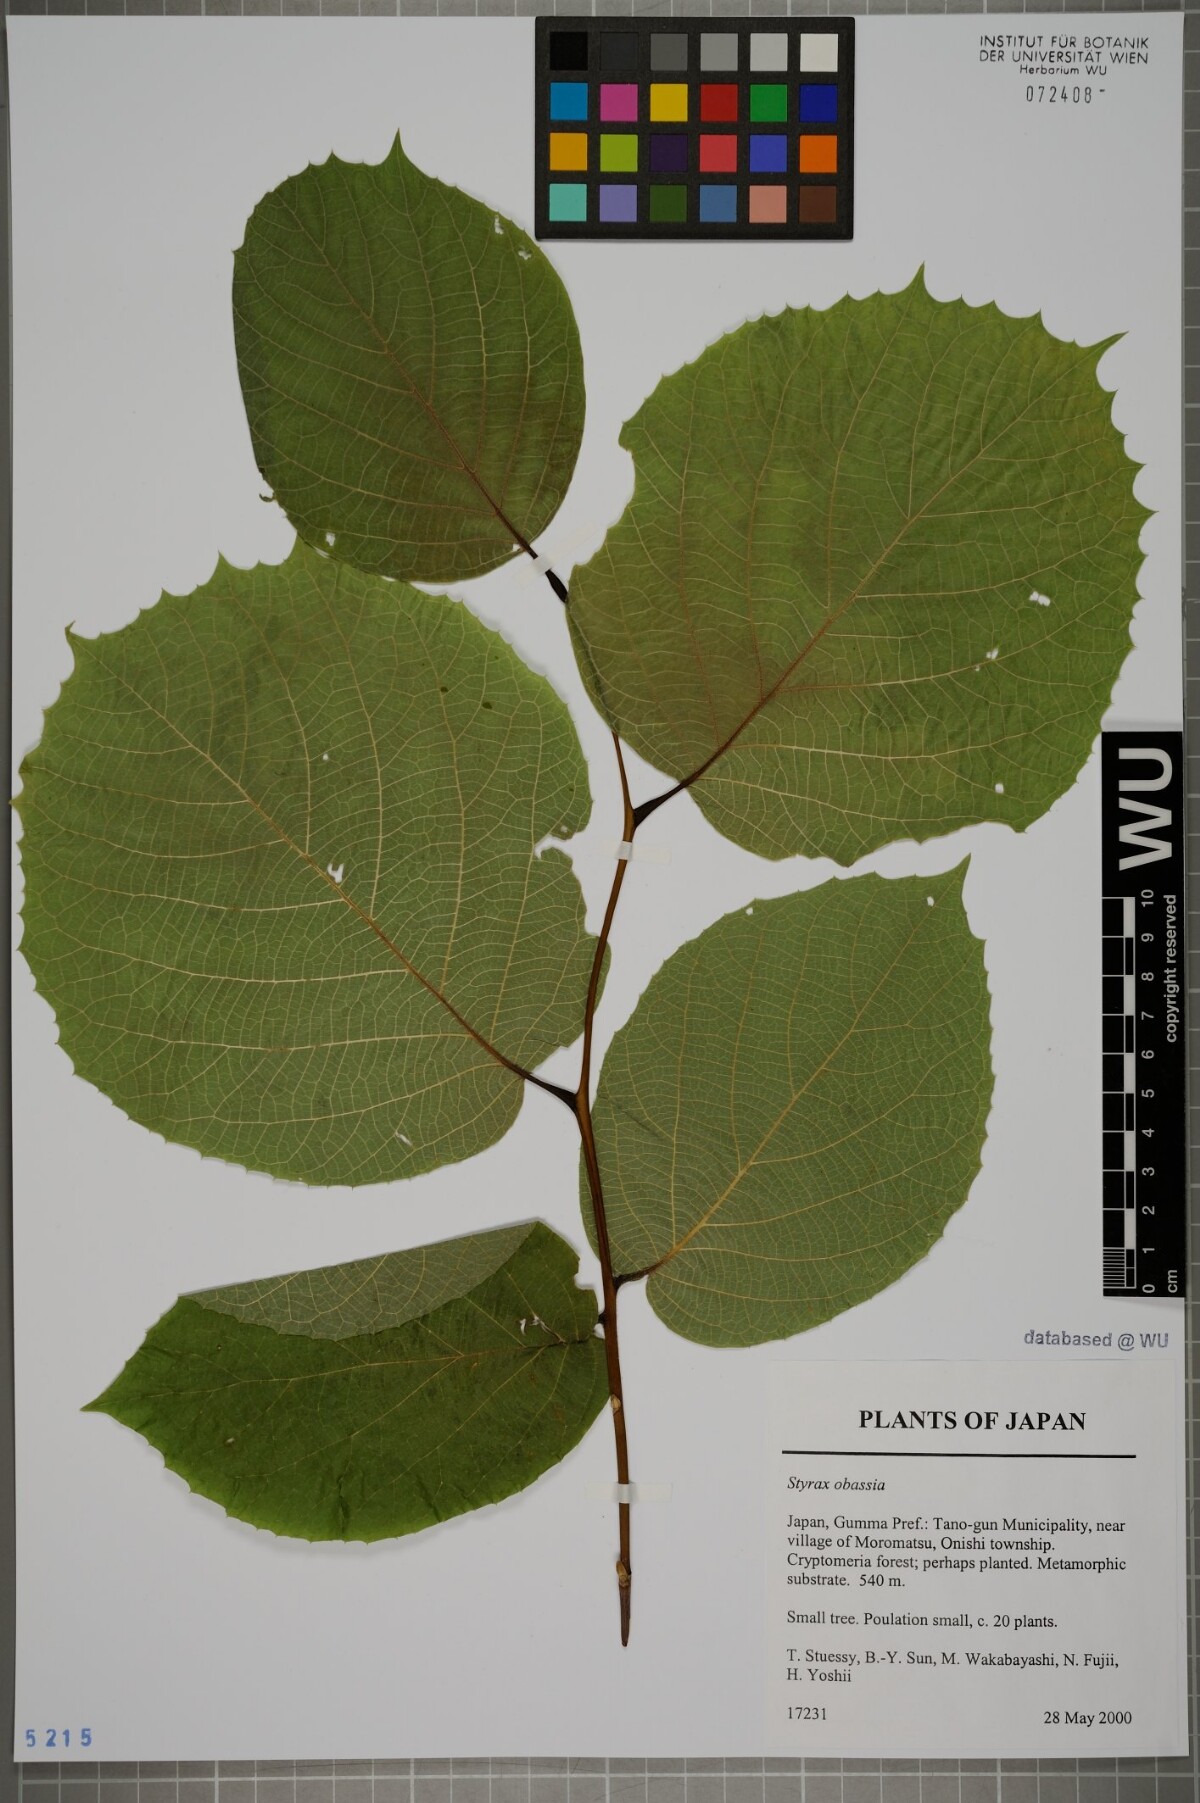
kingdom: Plantae
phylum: Tracheophyta
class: Magnoliopsida
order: Ericales
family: Styracaceae
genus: Styrax
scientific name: Styrax obassia
